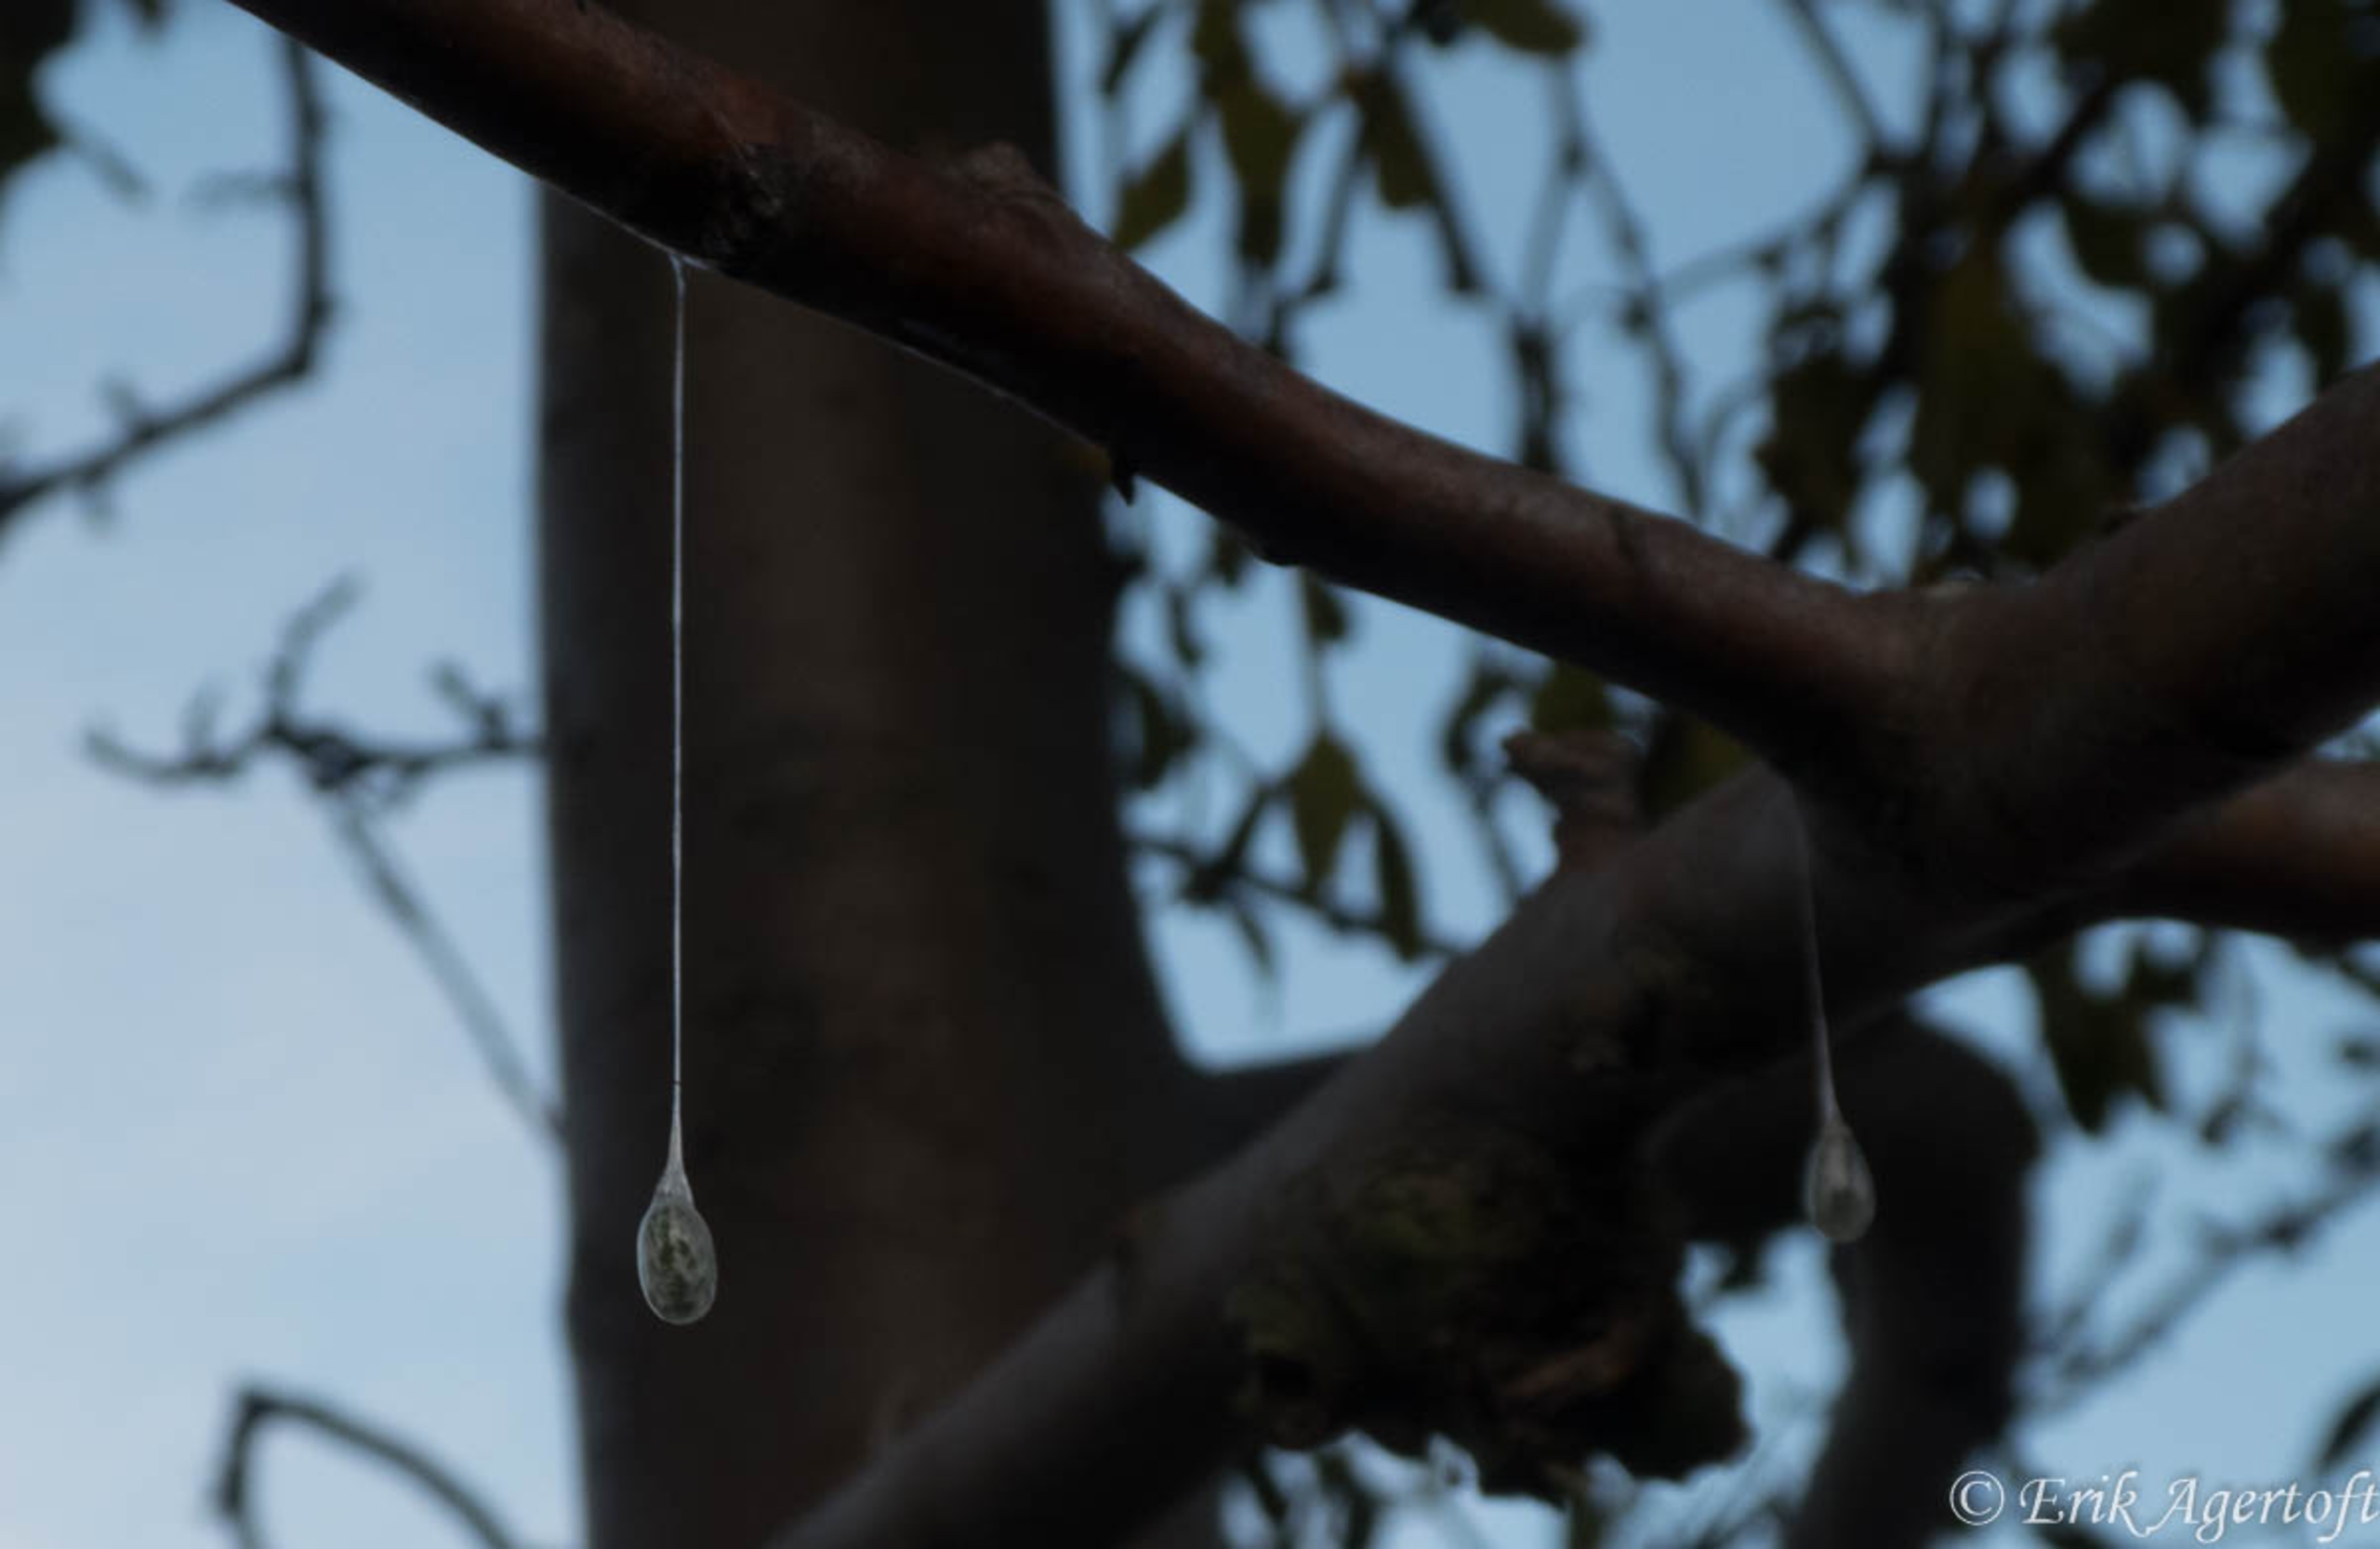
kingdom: Plantae
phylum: Tracheophyta
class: Magnoliopsida
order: Santalales
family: Viscaceae
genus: Viscum
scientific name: Viscum album
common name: Mistelten
